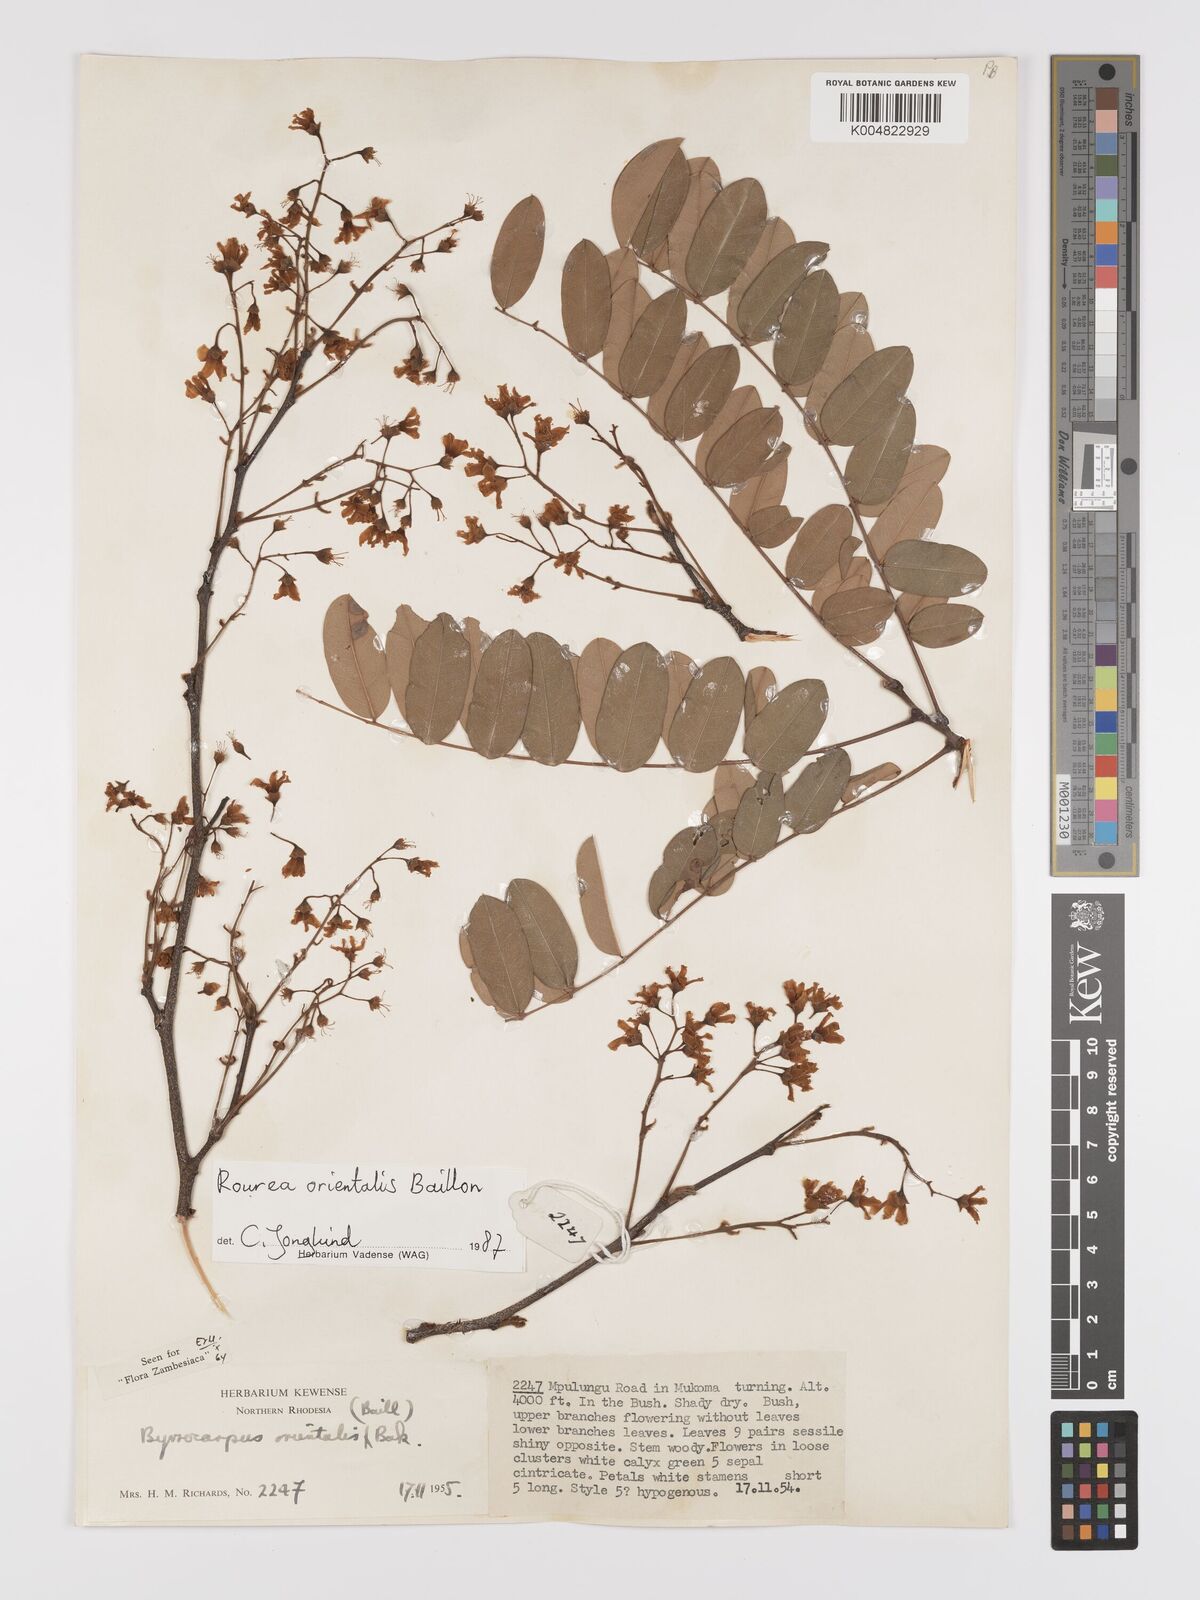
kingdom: Plantae
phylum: Tracheophyta
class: Magnoliopsida
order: Oxalidales
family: Connaraceae
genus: Rourea
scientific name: Rourea orientalis
